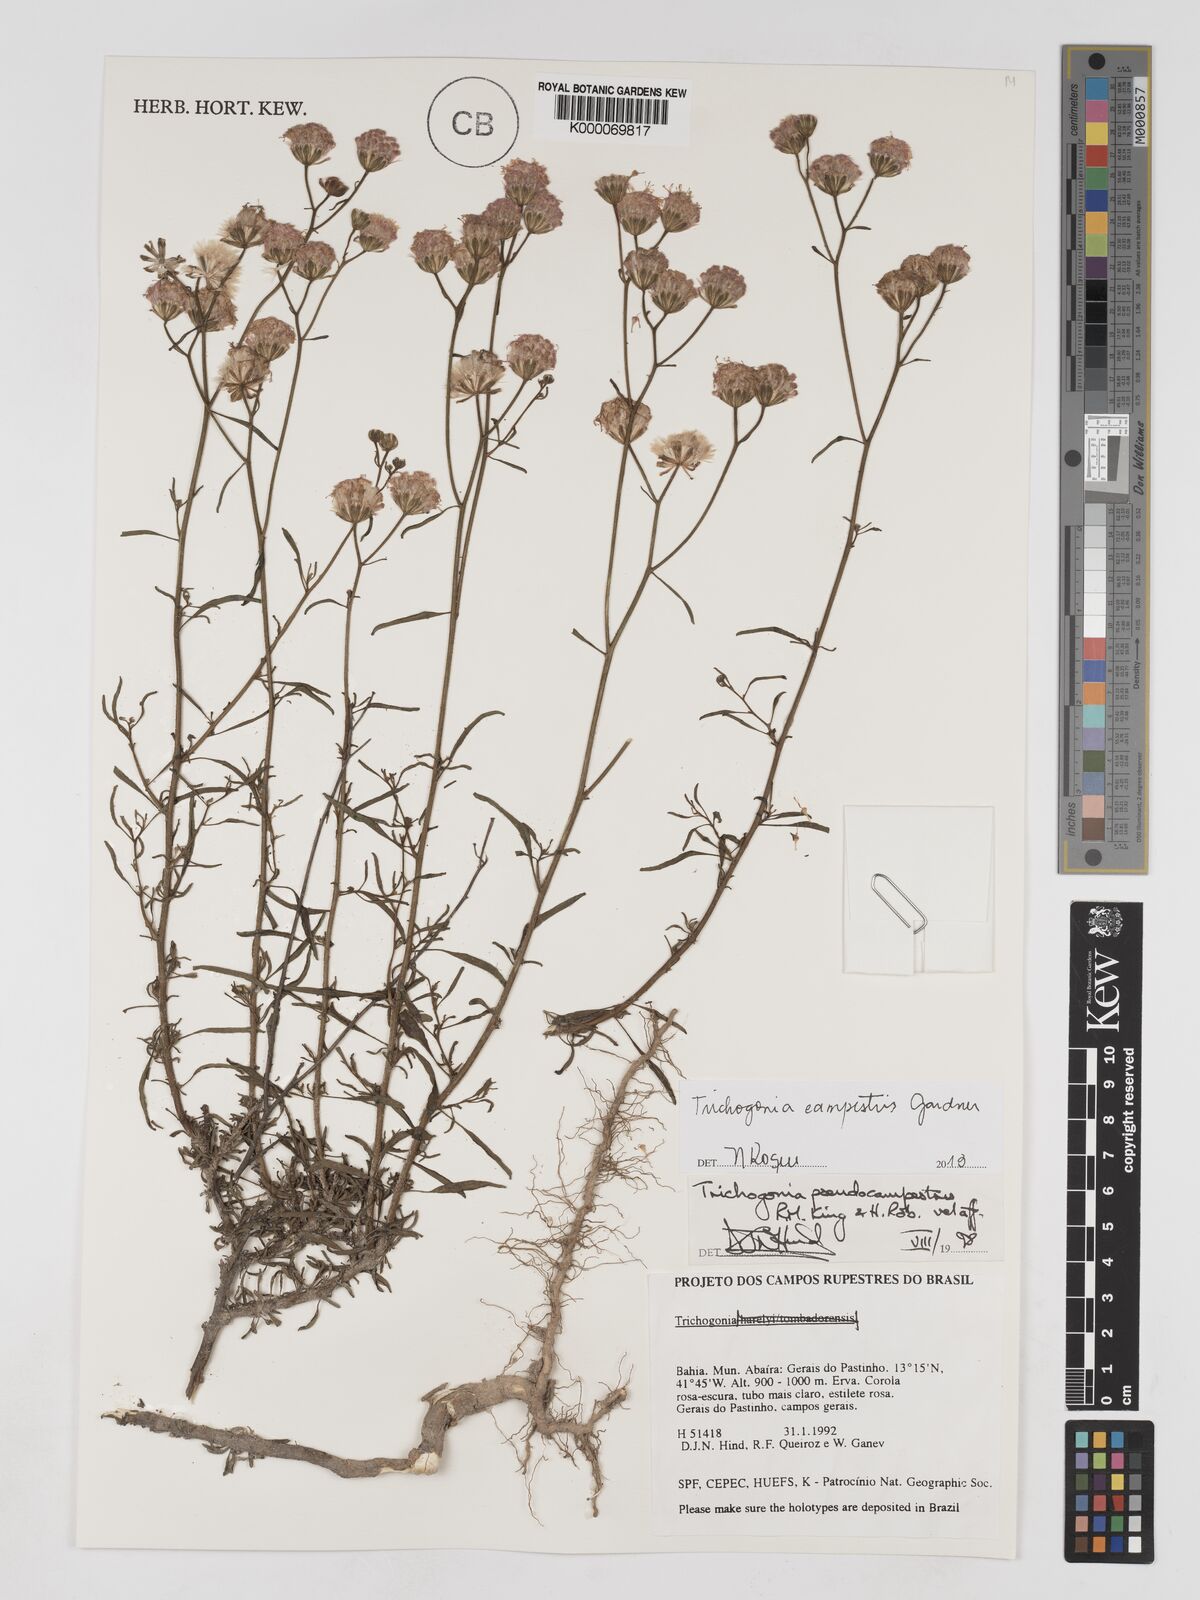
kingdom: Plantae
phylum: Tracheophyta
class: Magnoliopsida
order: Asterales
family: Asteraceae
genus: Trichogonia
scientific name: Trichogonia campestris
